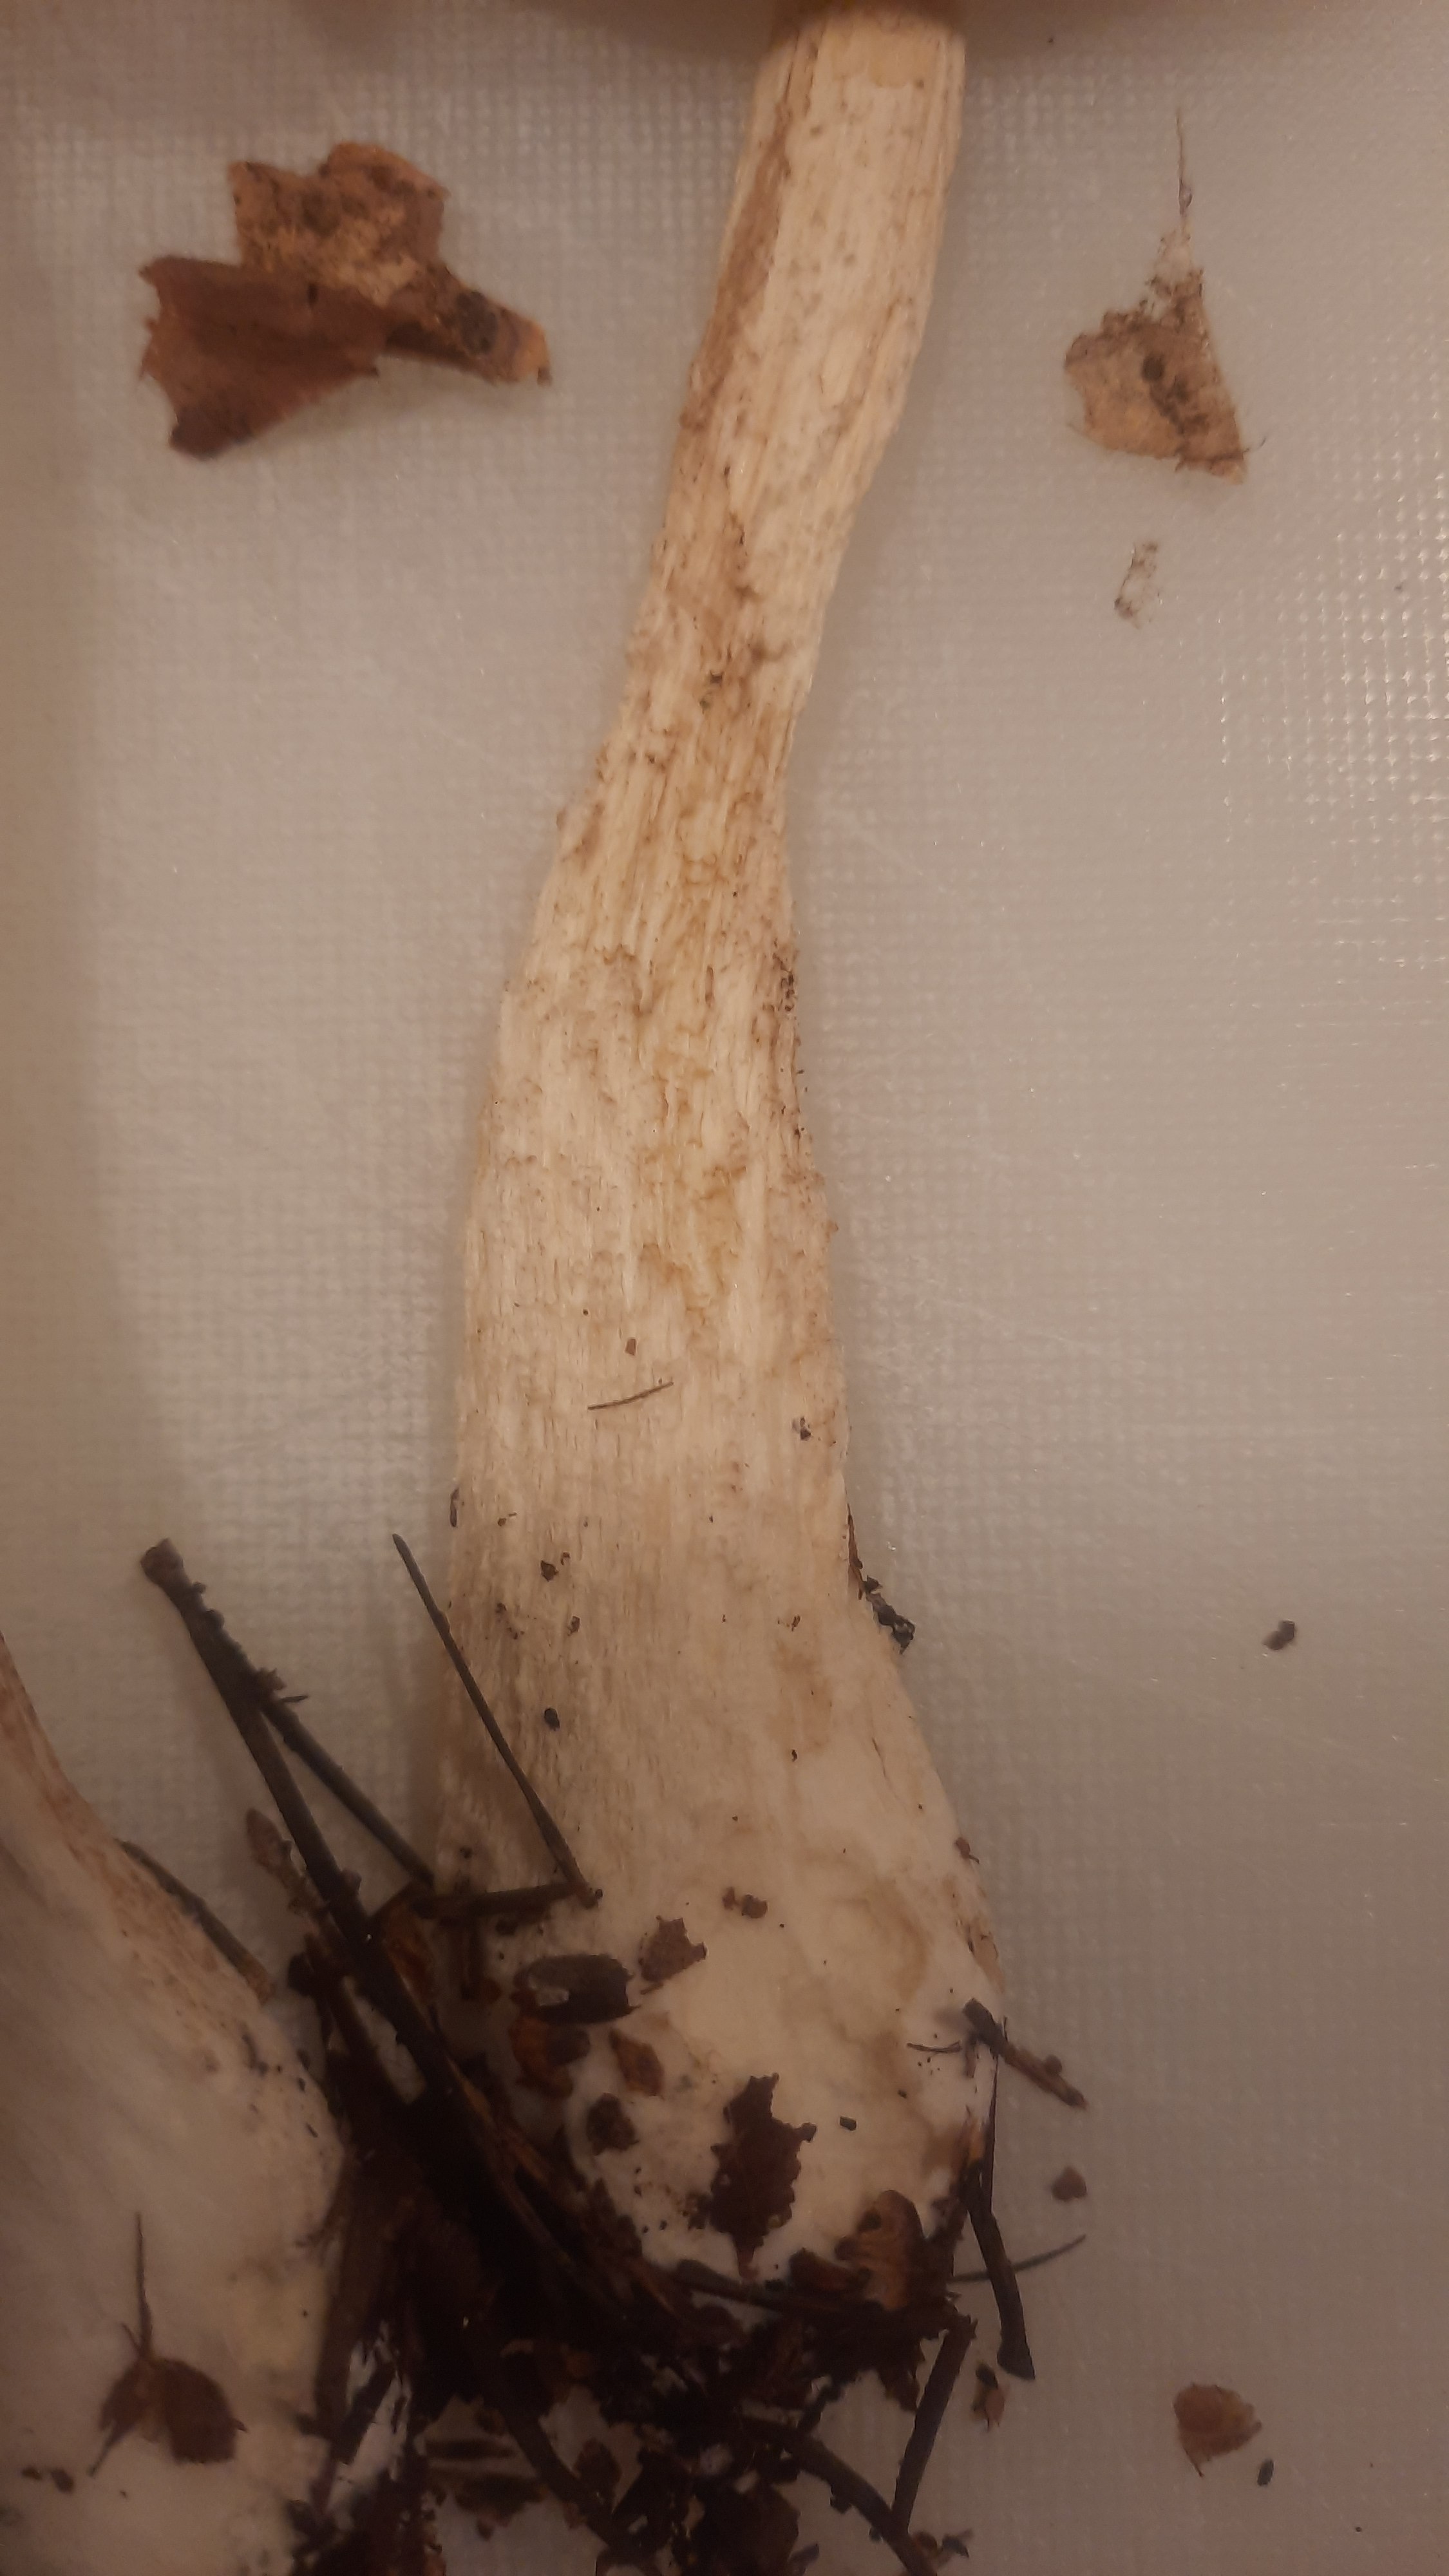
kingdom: Fungi
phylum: Basidiomycota
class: Agaricomycetes
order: Boletales
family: Boletaceae
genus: Leccinum
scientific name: Leccinum scabrum
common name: hvid skælrørhat
